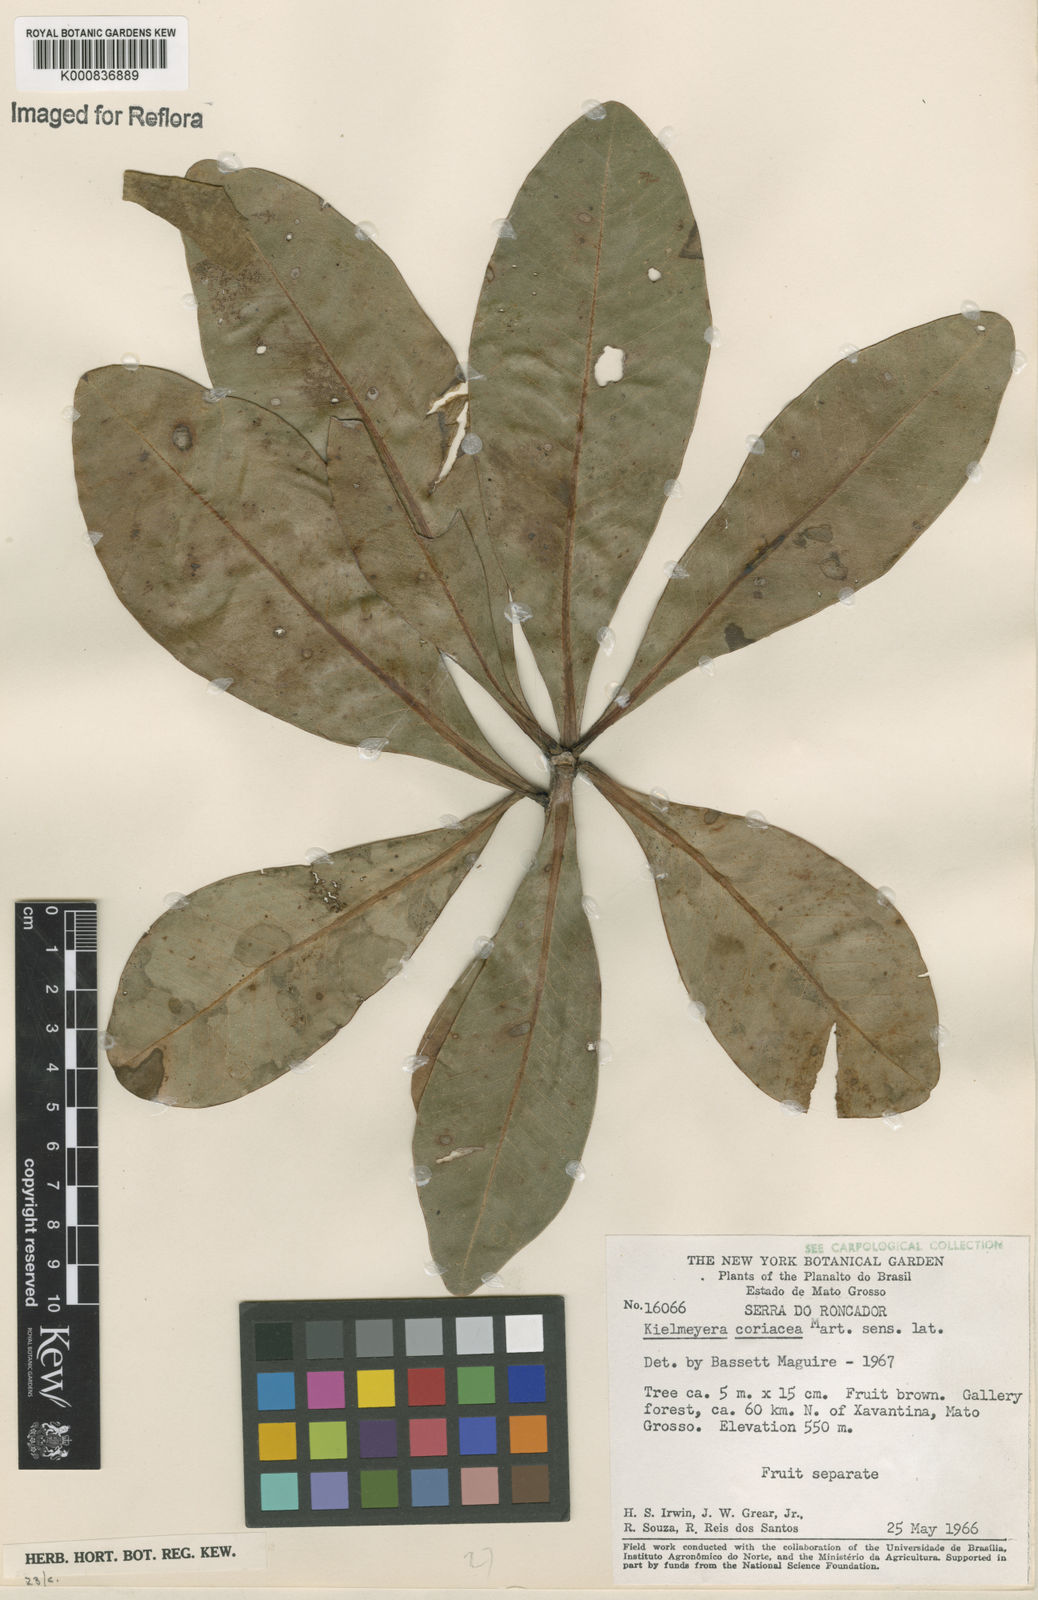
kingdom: Plantae
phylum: Tracheophyta
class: Magnoliopsida
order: Malpighiales
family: Calophyllaceae
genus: Kielmeyera
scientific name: Kielmeyera coriacea
